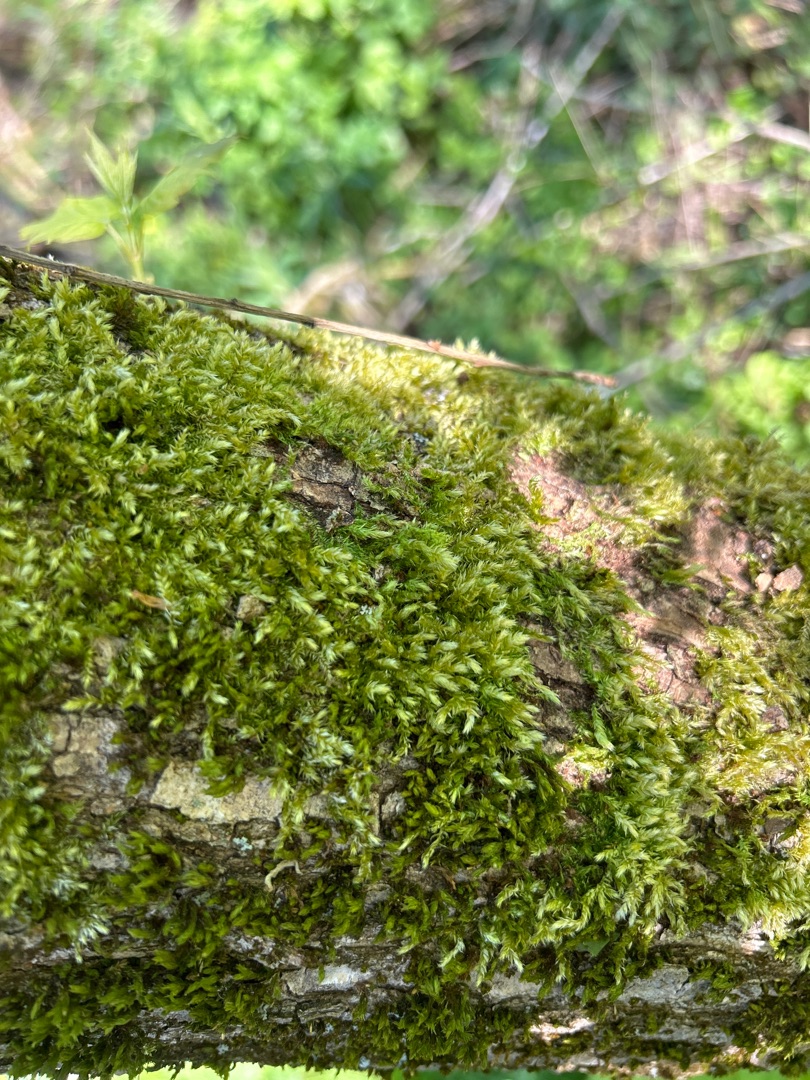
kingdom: Plantae
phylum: Bryophyta
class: Bryopsida
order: Hypnales
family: Brachytheciaceae
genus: Brachythecium
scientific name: Brachythecium rutabulum
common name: Almindelig kortkapsel
